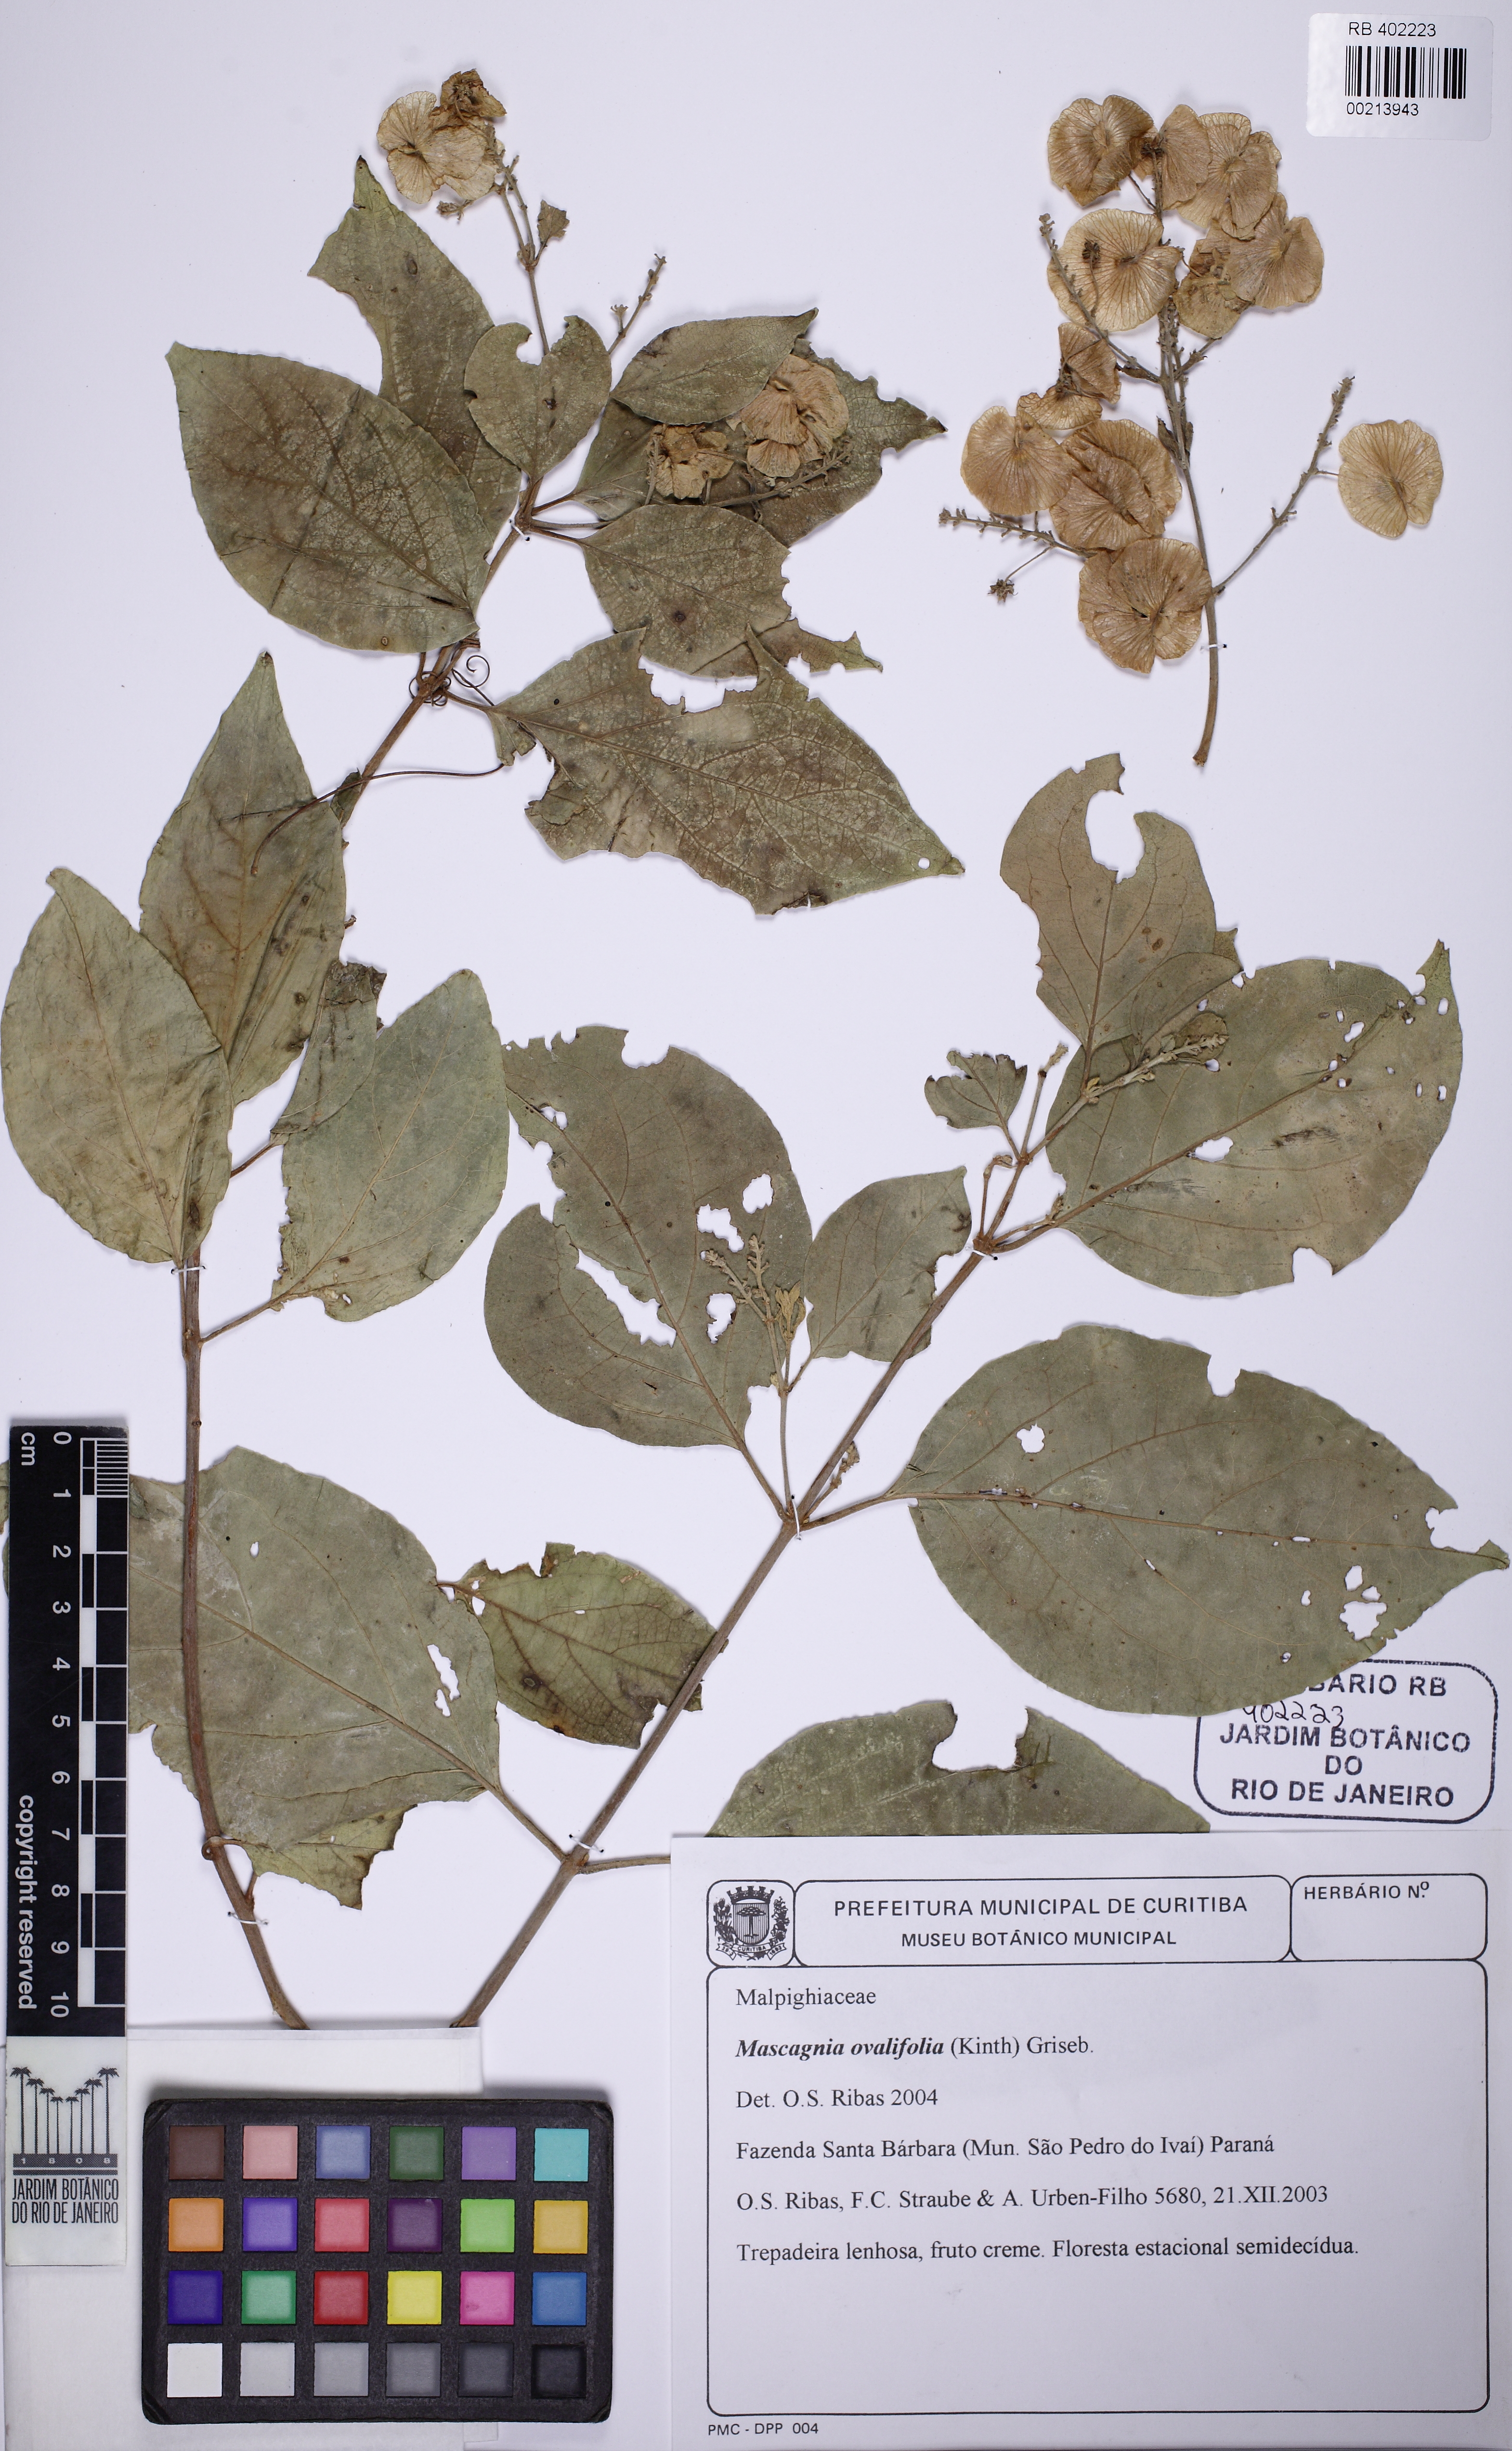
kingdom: Plantae
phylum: Tracheophyta
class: Magnoliopsida
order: Malpighiales
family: Malpighiaceae
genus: Mascagnia
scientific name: Mascagnia ovatifolia
